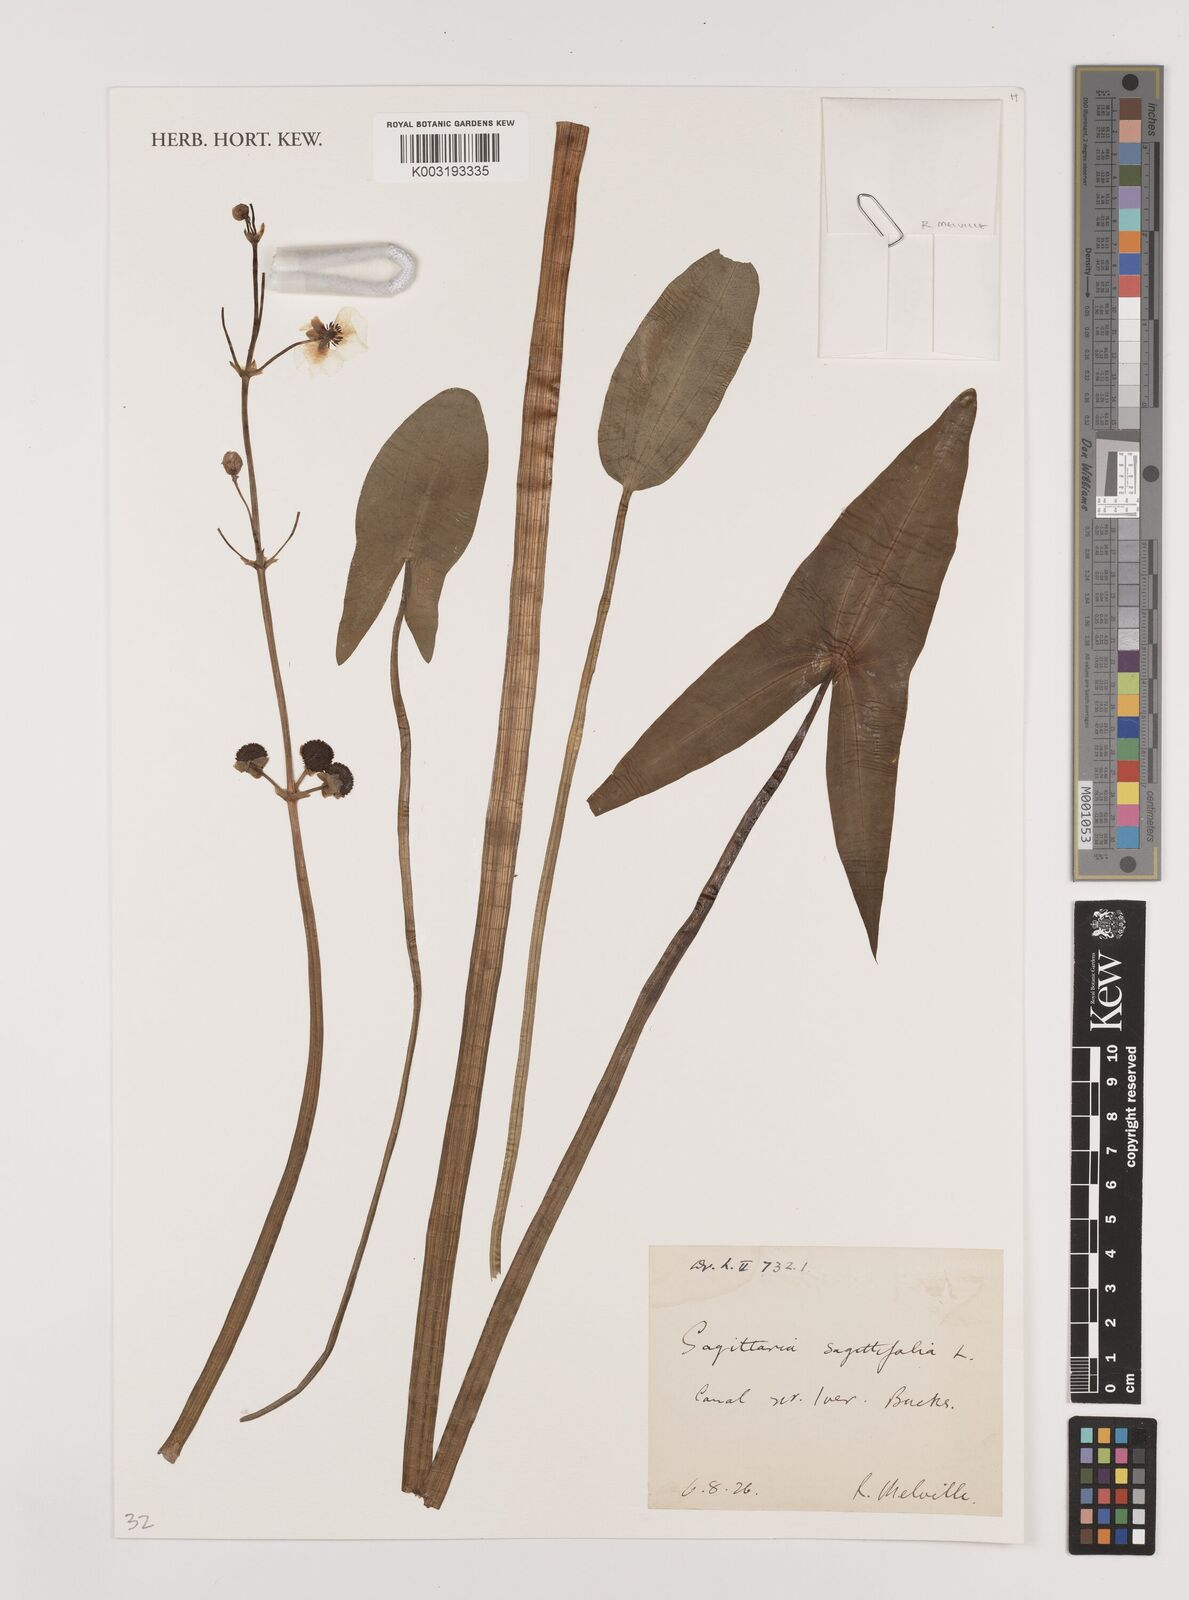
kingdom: Plantae
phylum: Tracheophyta
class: Liliopsida
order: Alismatales
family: Alismataceae
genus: Sagittaria
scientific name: Sagittaria sagittifolia
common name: Arrowhead
